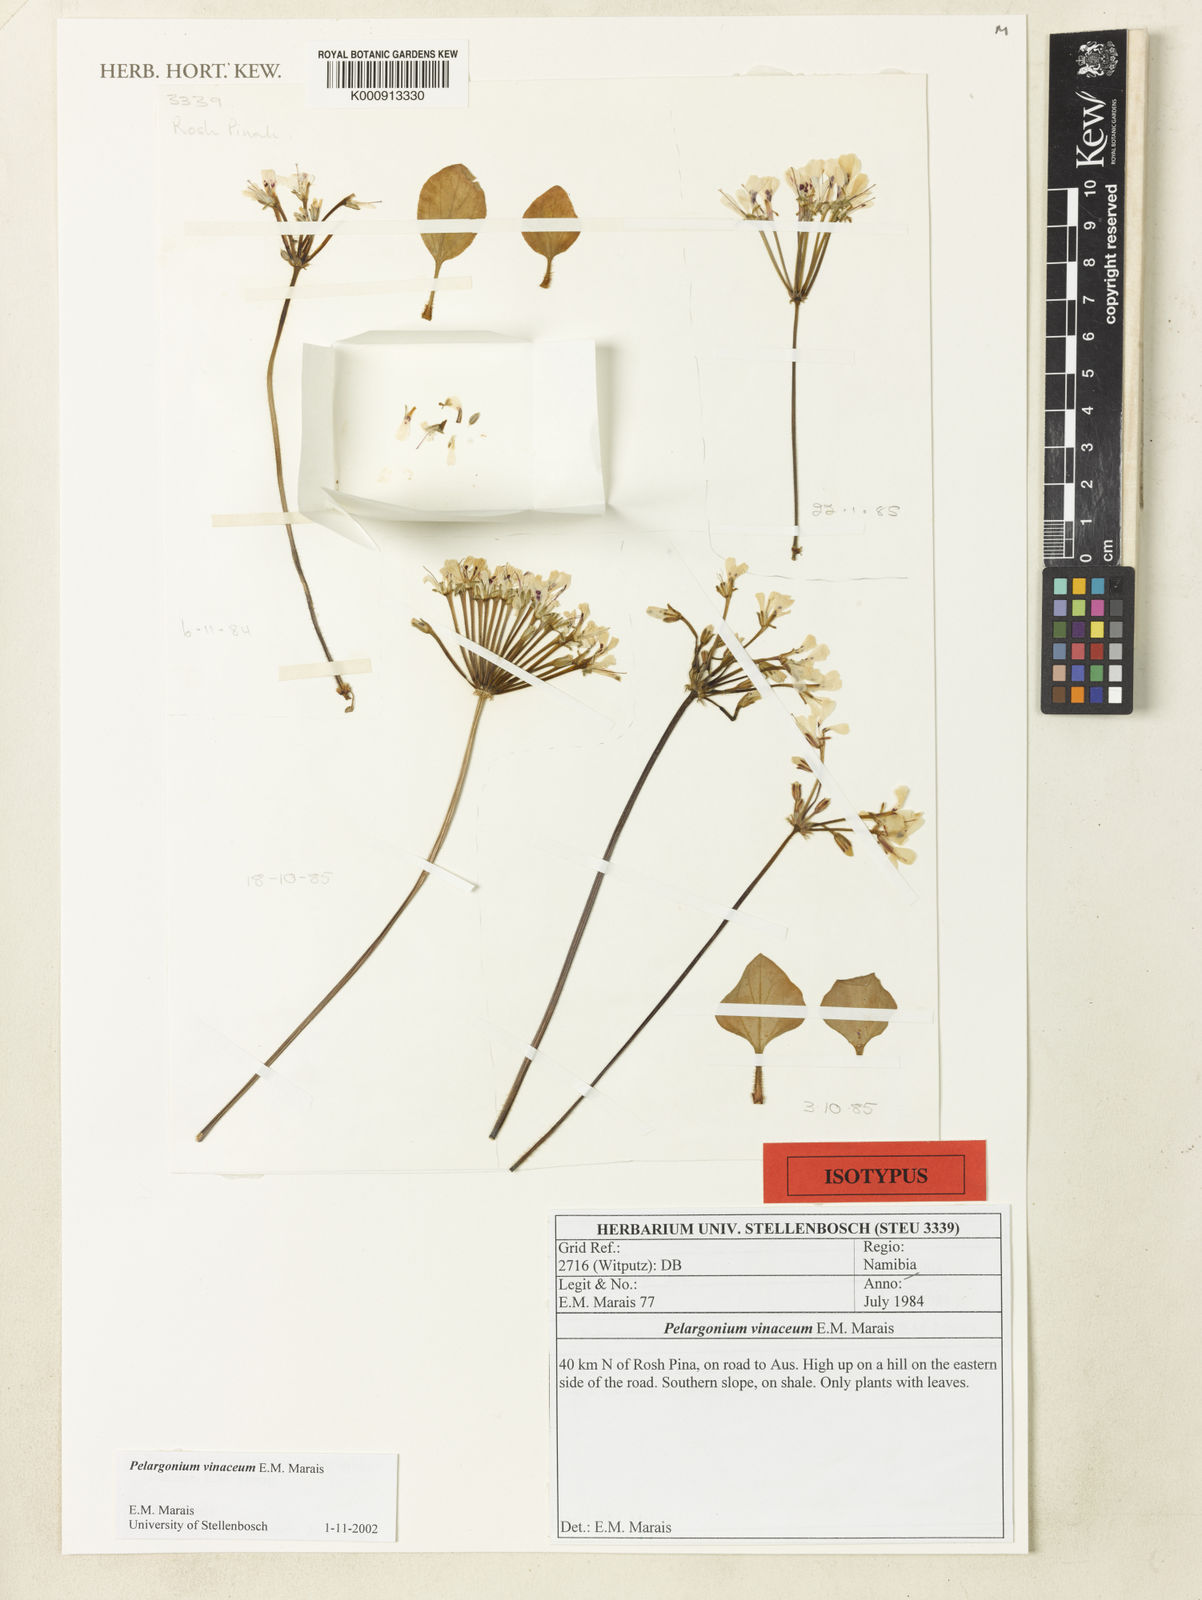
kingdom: Plantae
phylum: Tracheophyta
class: Magnoliopsida
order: Geraniales
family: Geraniaceae
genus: Pelargonium
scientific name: Pelargonium vinaceum
